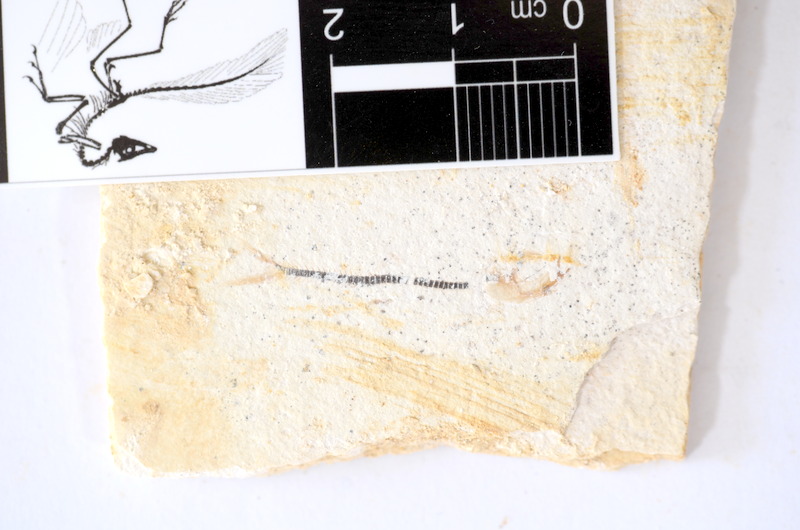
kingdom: Animalia
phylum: Chordata
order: Salmoniformes
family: Orthogonikleithridae
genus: Orthogonikleithrus
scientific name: Orthogonikleithrus hoelli
